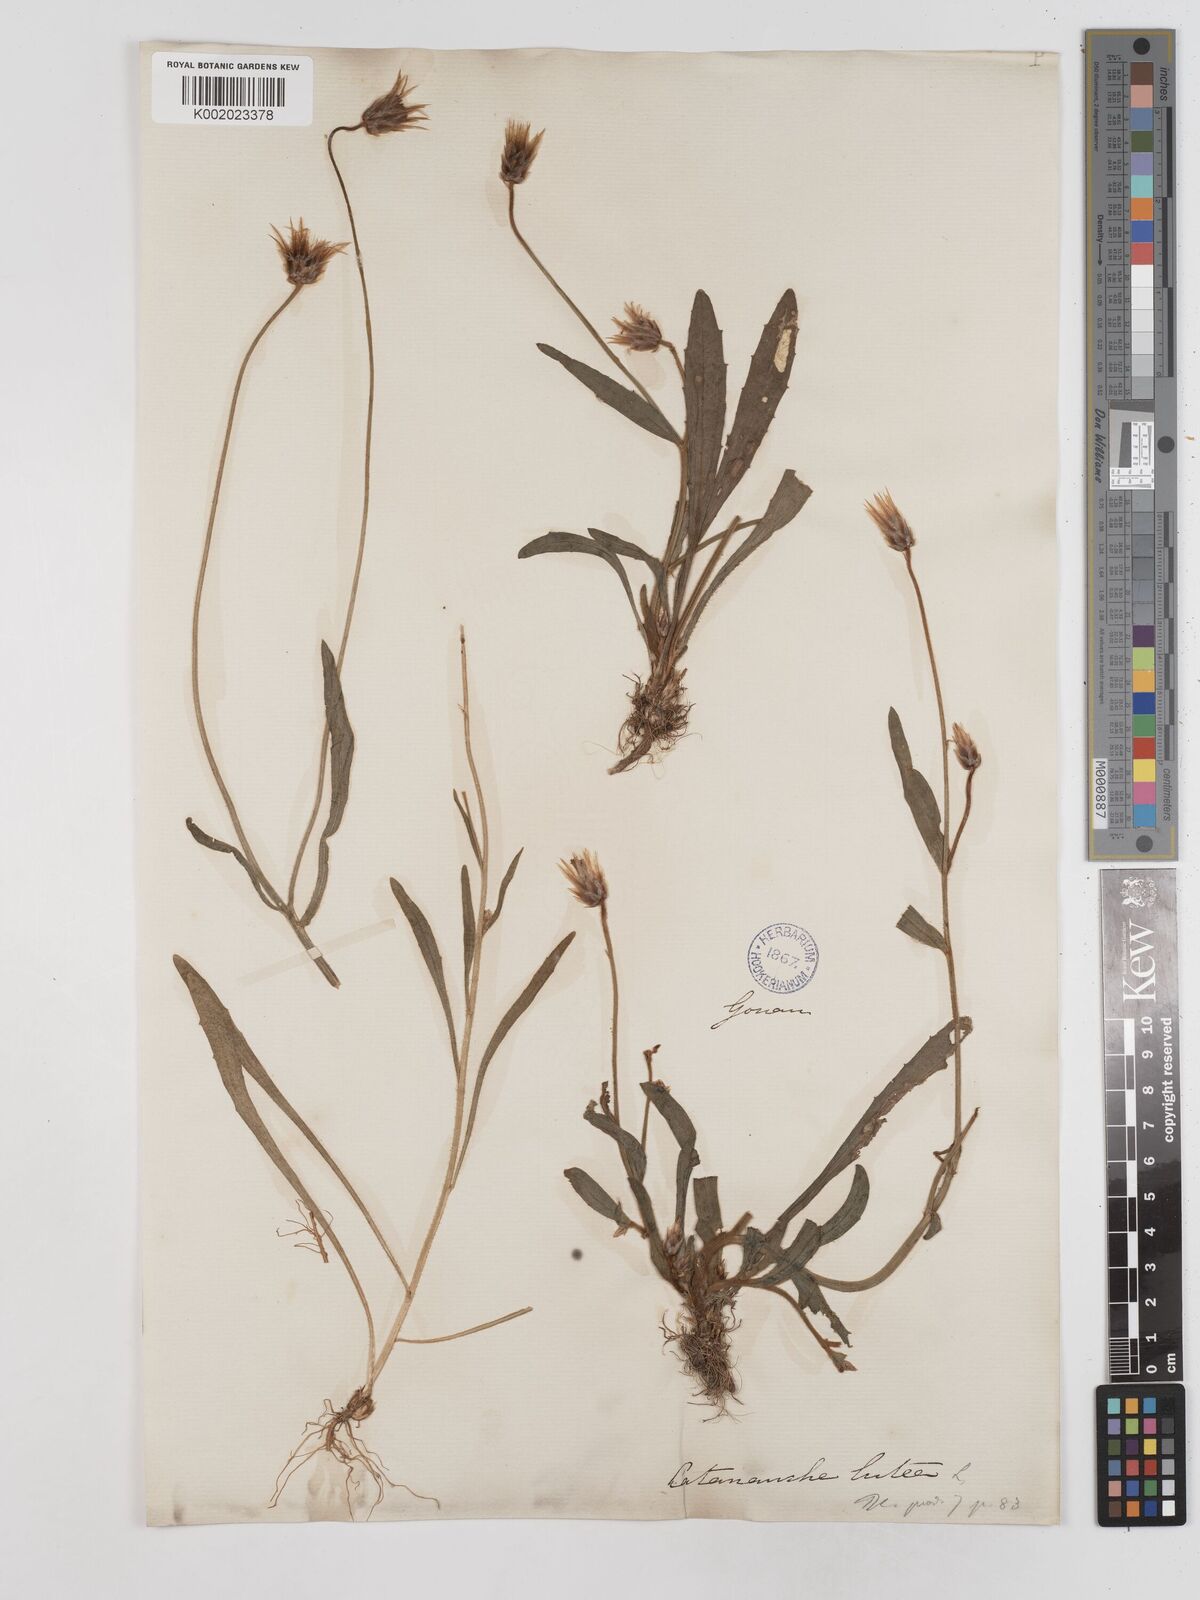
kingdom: Plantae
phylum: Tracheophyta
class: Magnoliopsida
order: Asterales
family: Asteraceae
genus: Catananche
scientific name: Catananche lutea
